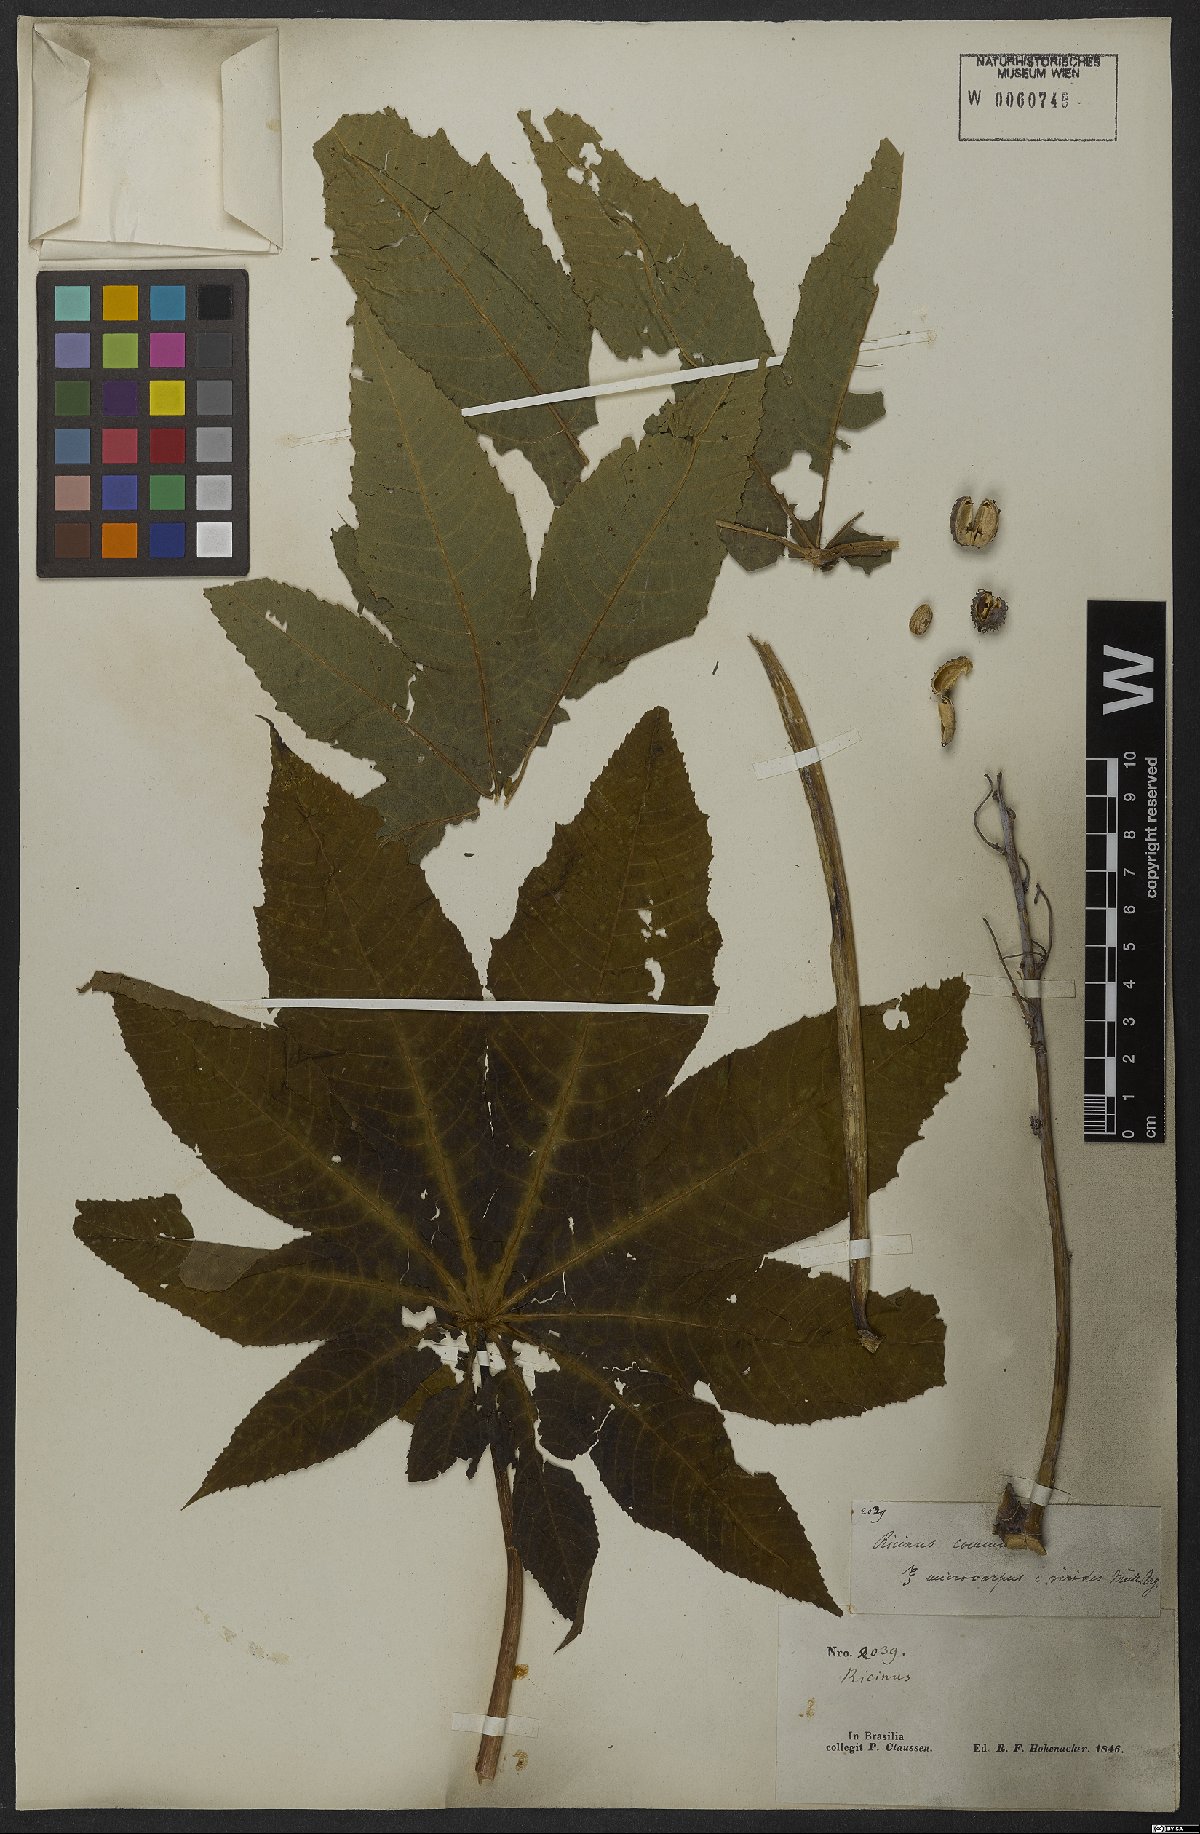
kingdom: Plantae
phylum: Tracheophyta
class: Magnoliopsida
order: Malpighiales
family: Euphorbiaceae
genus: Ricinus
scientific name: Ricinus communis
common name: Castor-oil-plant
